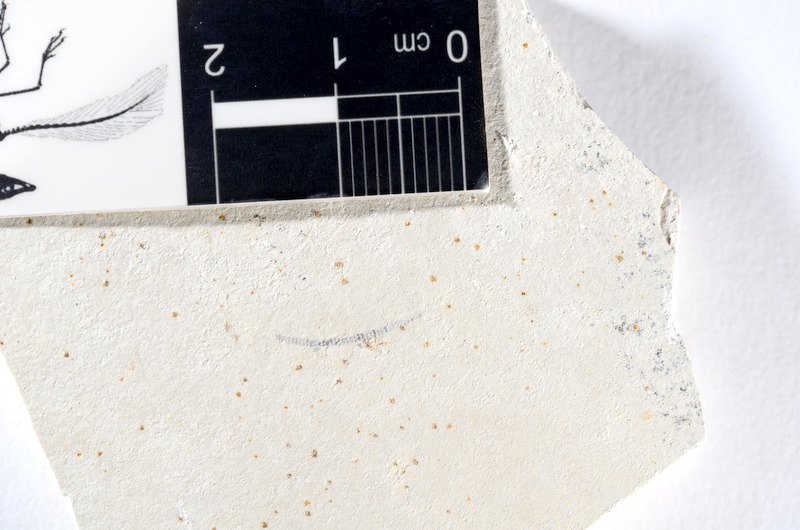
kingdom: Animalia
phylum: Chordata
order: Salmoniformes
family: Orthogonikleithridae
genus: Orthogonikleithrus
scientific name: Orthogonikleithrus hoelli
